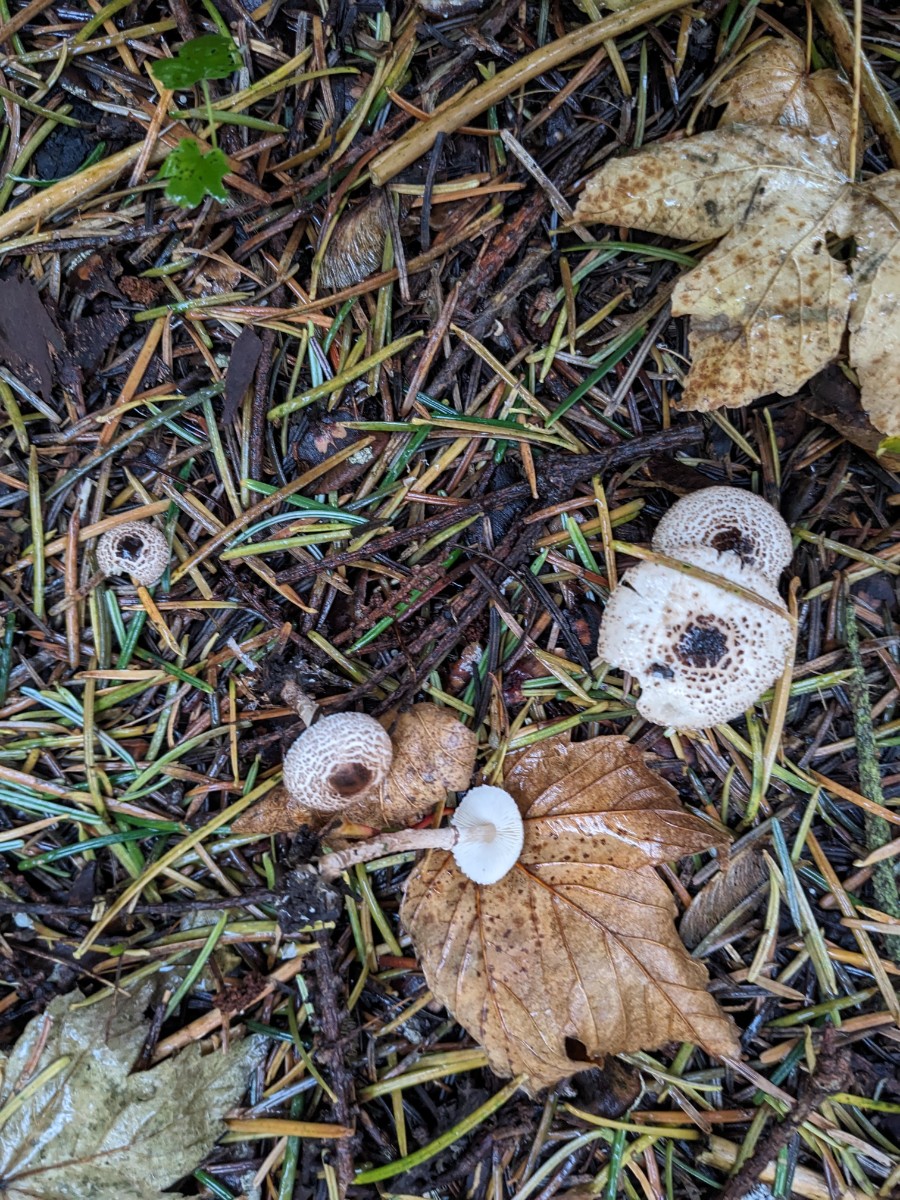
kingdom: Fungi
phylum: Basidiomycota
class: Agaricomycetes
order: Agaricales
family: Agaricaceae
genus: Lepiota
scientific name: Lepiota felina
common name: sortskællet parasolhat
